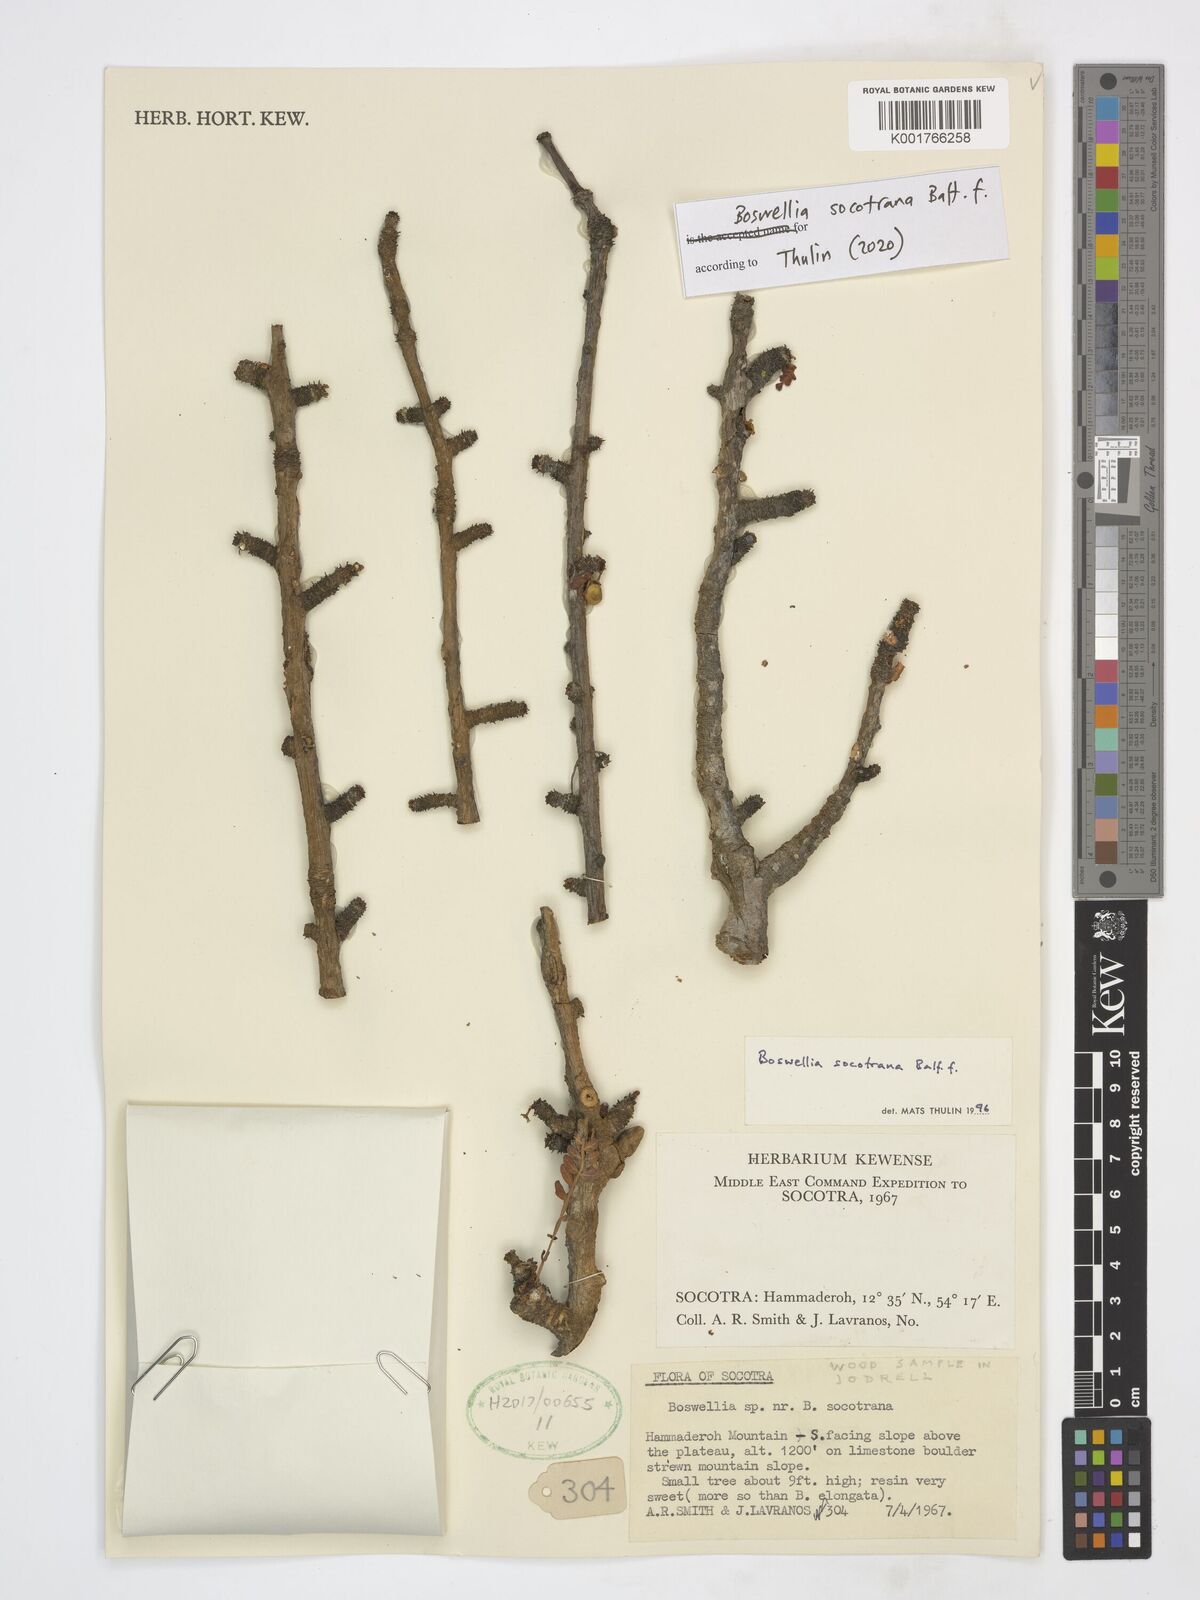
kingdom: Plantae
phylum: Tracheophyta
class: Magnoliopsida
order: Sapindales
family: Burseraceae
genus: Boswellia
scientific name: Boswellia socotrana
